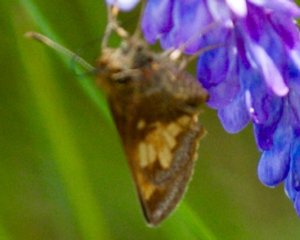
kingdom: Animalia
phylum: Arthropoda
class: Insecta
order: Lepidoptera
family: Hesperiidae
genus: Lon
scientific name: Lon hobomok
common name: Hobomok Skipper
